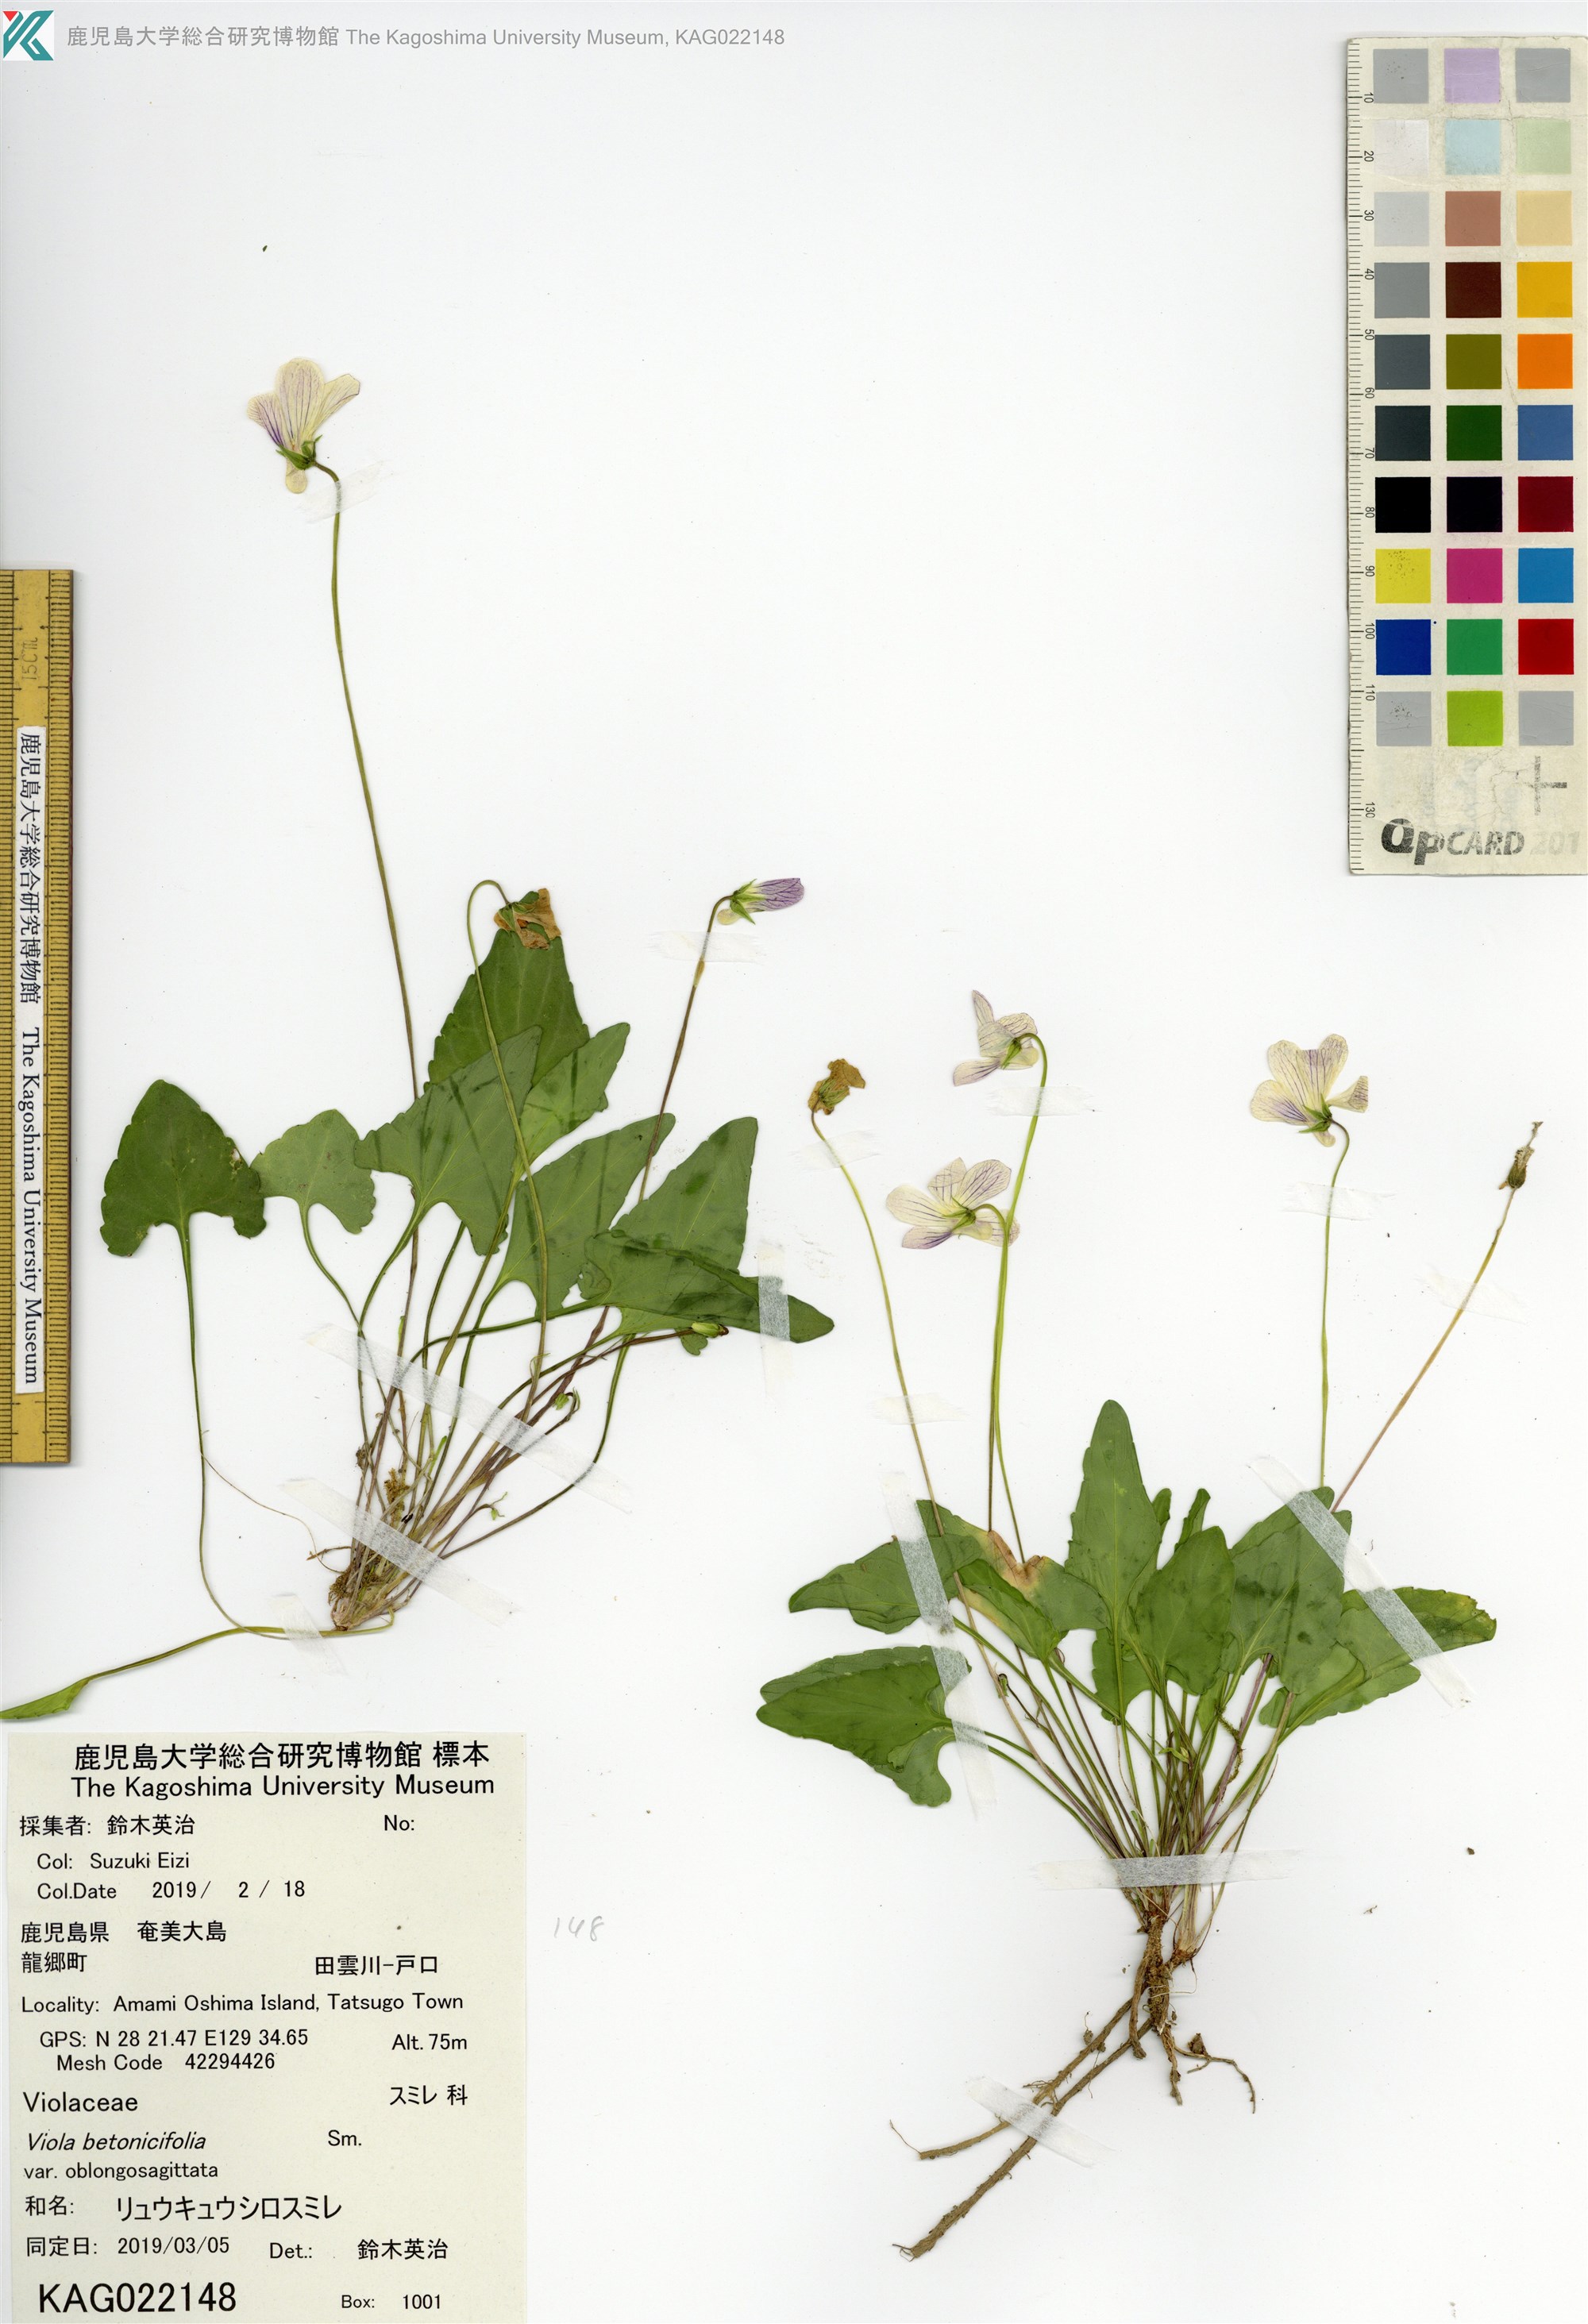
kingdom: Plantae
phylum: Tracheophyta
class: Magnoliopsida
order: Malpighiales
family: Violaceae
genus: Viola
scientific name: Viola inconspicua
